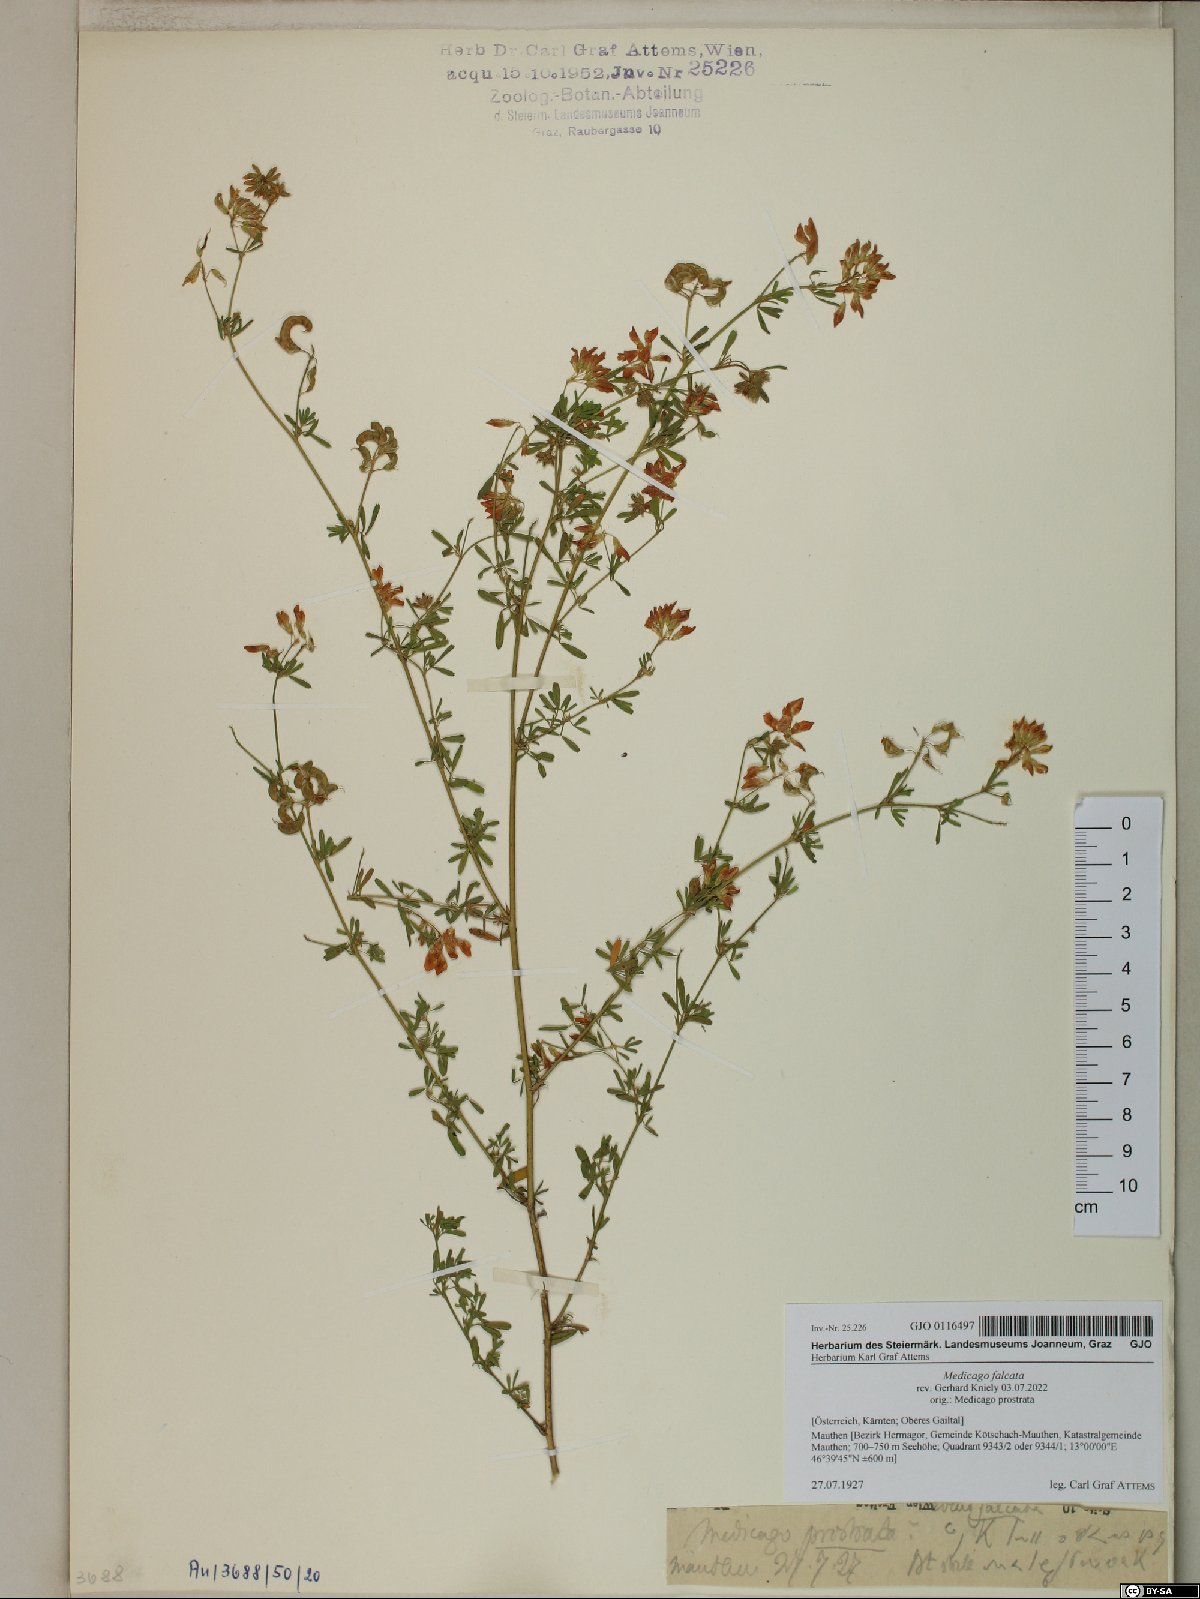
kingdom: Plantae
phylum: Tracheophyta
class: Magnoliopsida
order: Fabales
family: Fabaceae
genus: Medicago
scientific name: Medicago falcata
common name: Sickle medick
